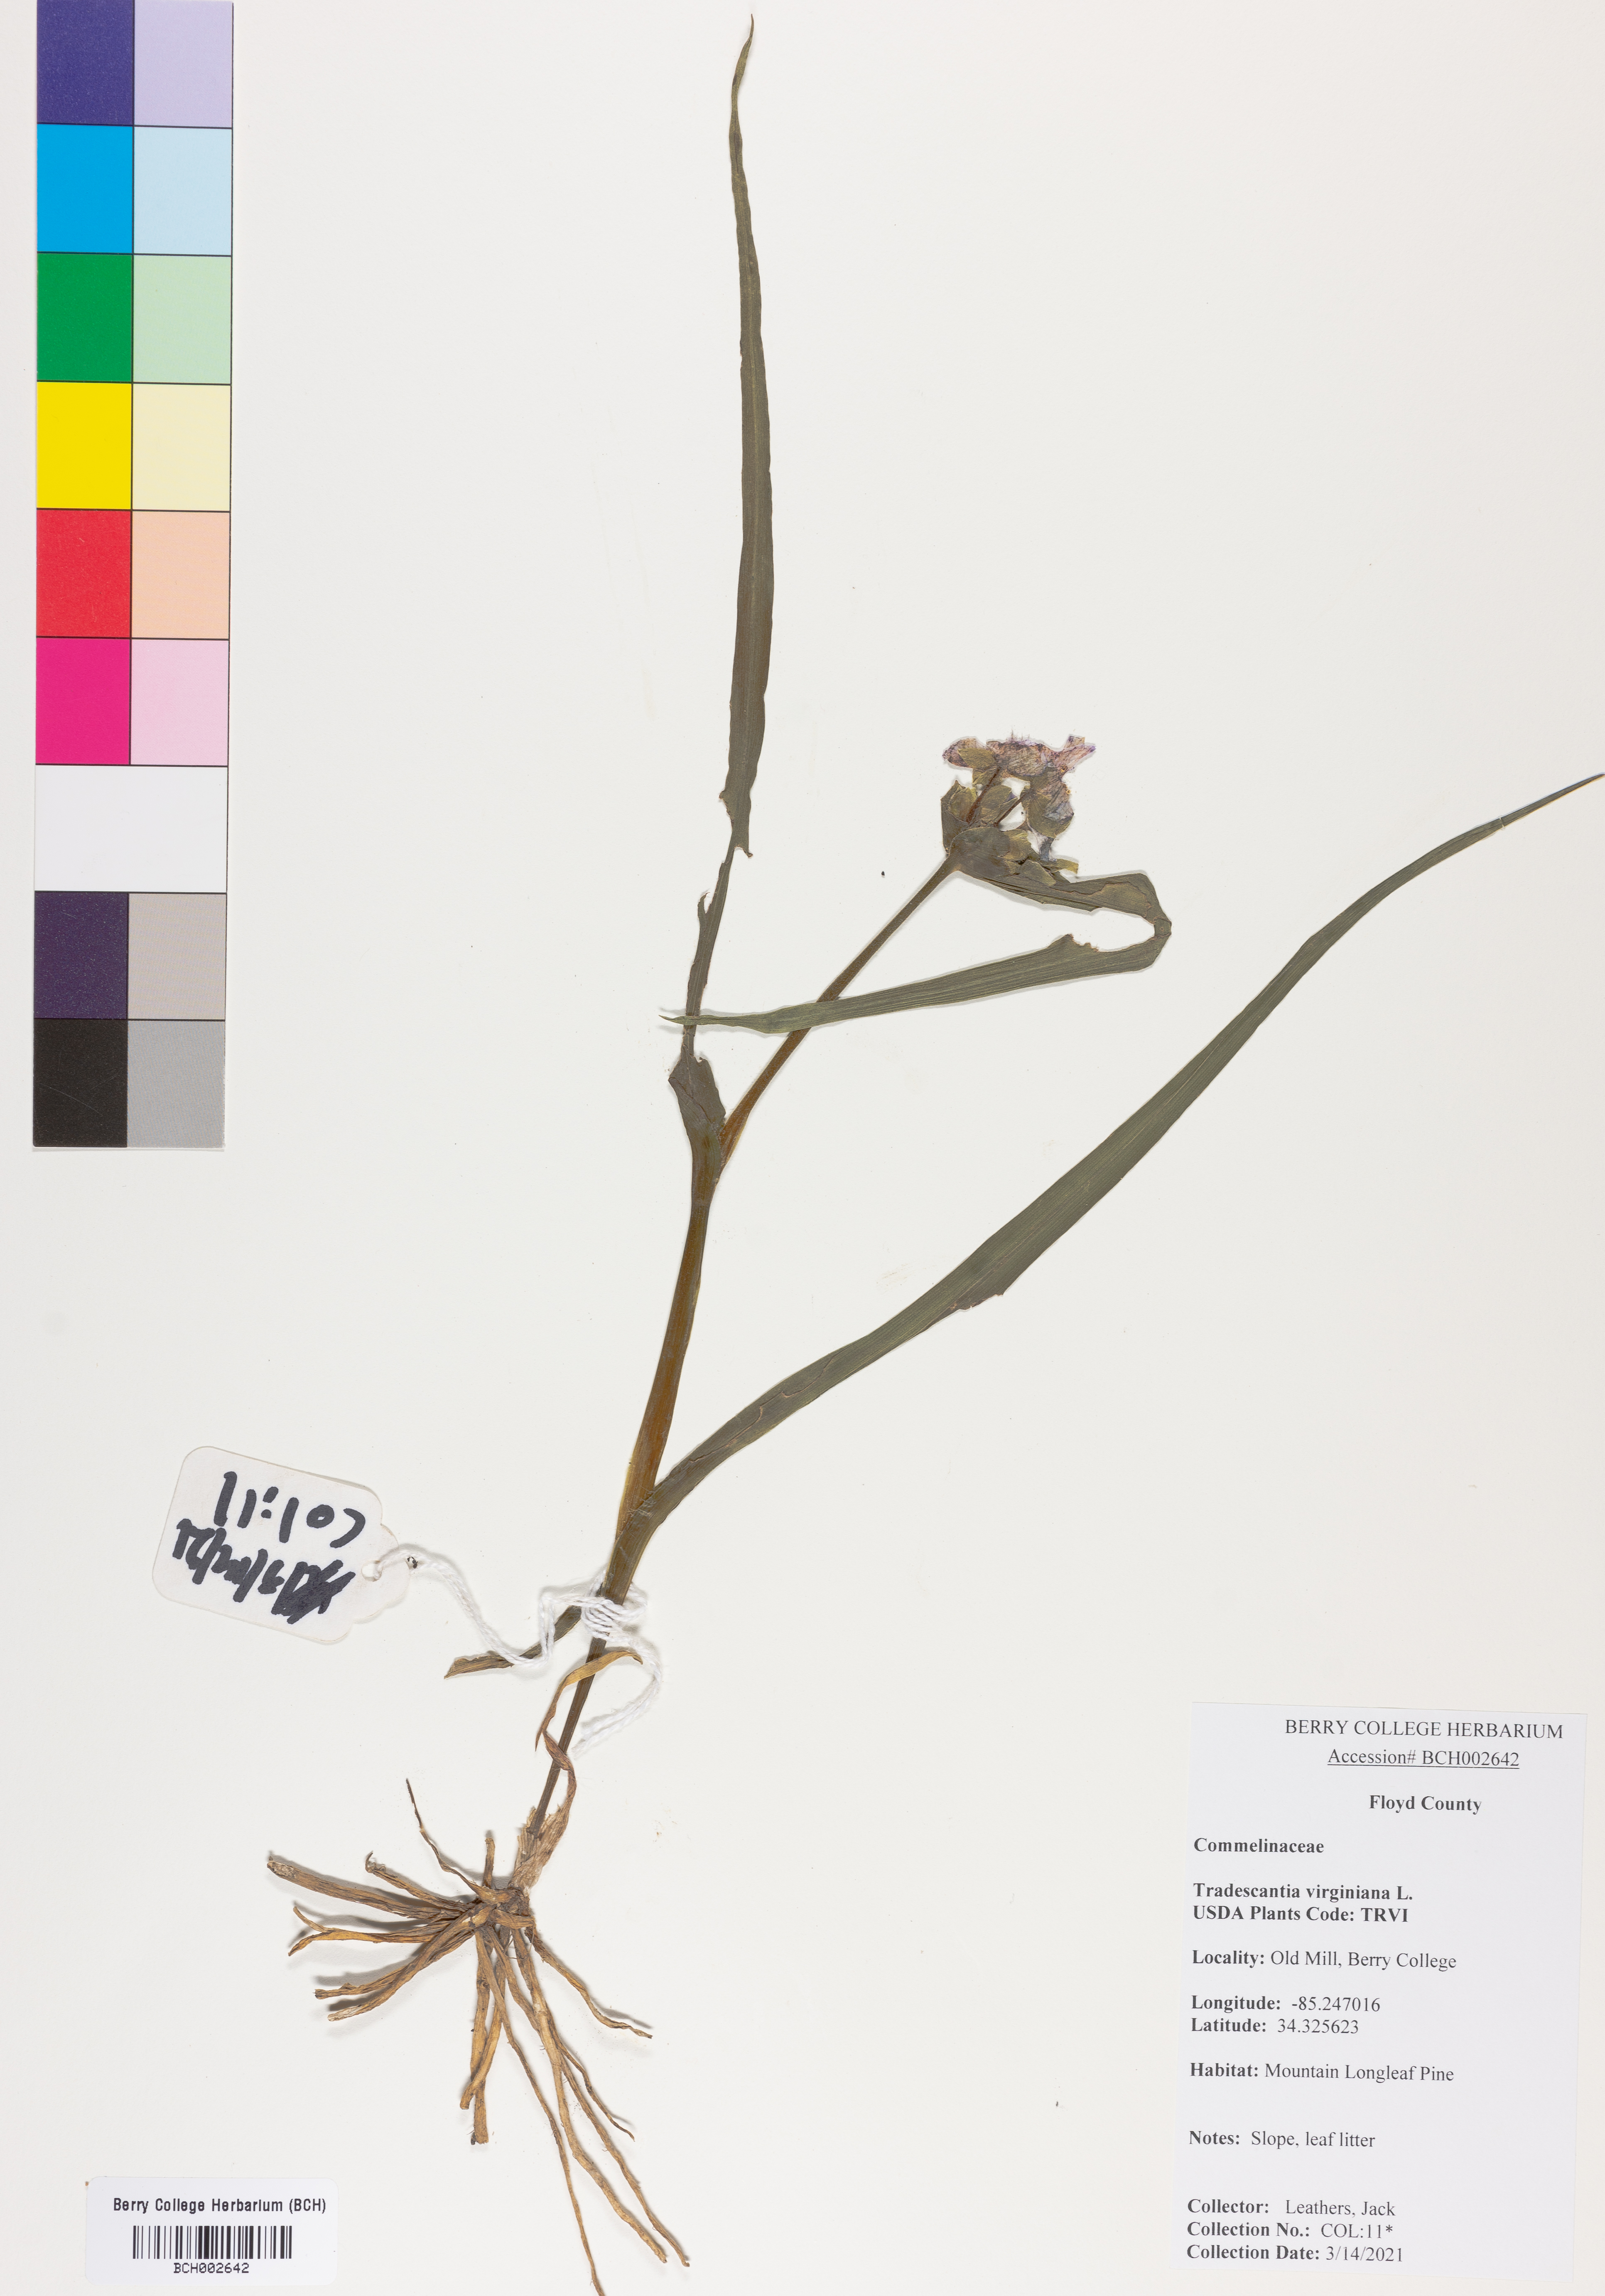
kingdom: Plantae
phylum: Tracheophyta
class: Liliopsida
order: Commelinales
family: Commelinaceae
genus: Tradescantia
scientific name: Tradescantia virginiana
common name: Spiderwort
